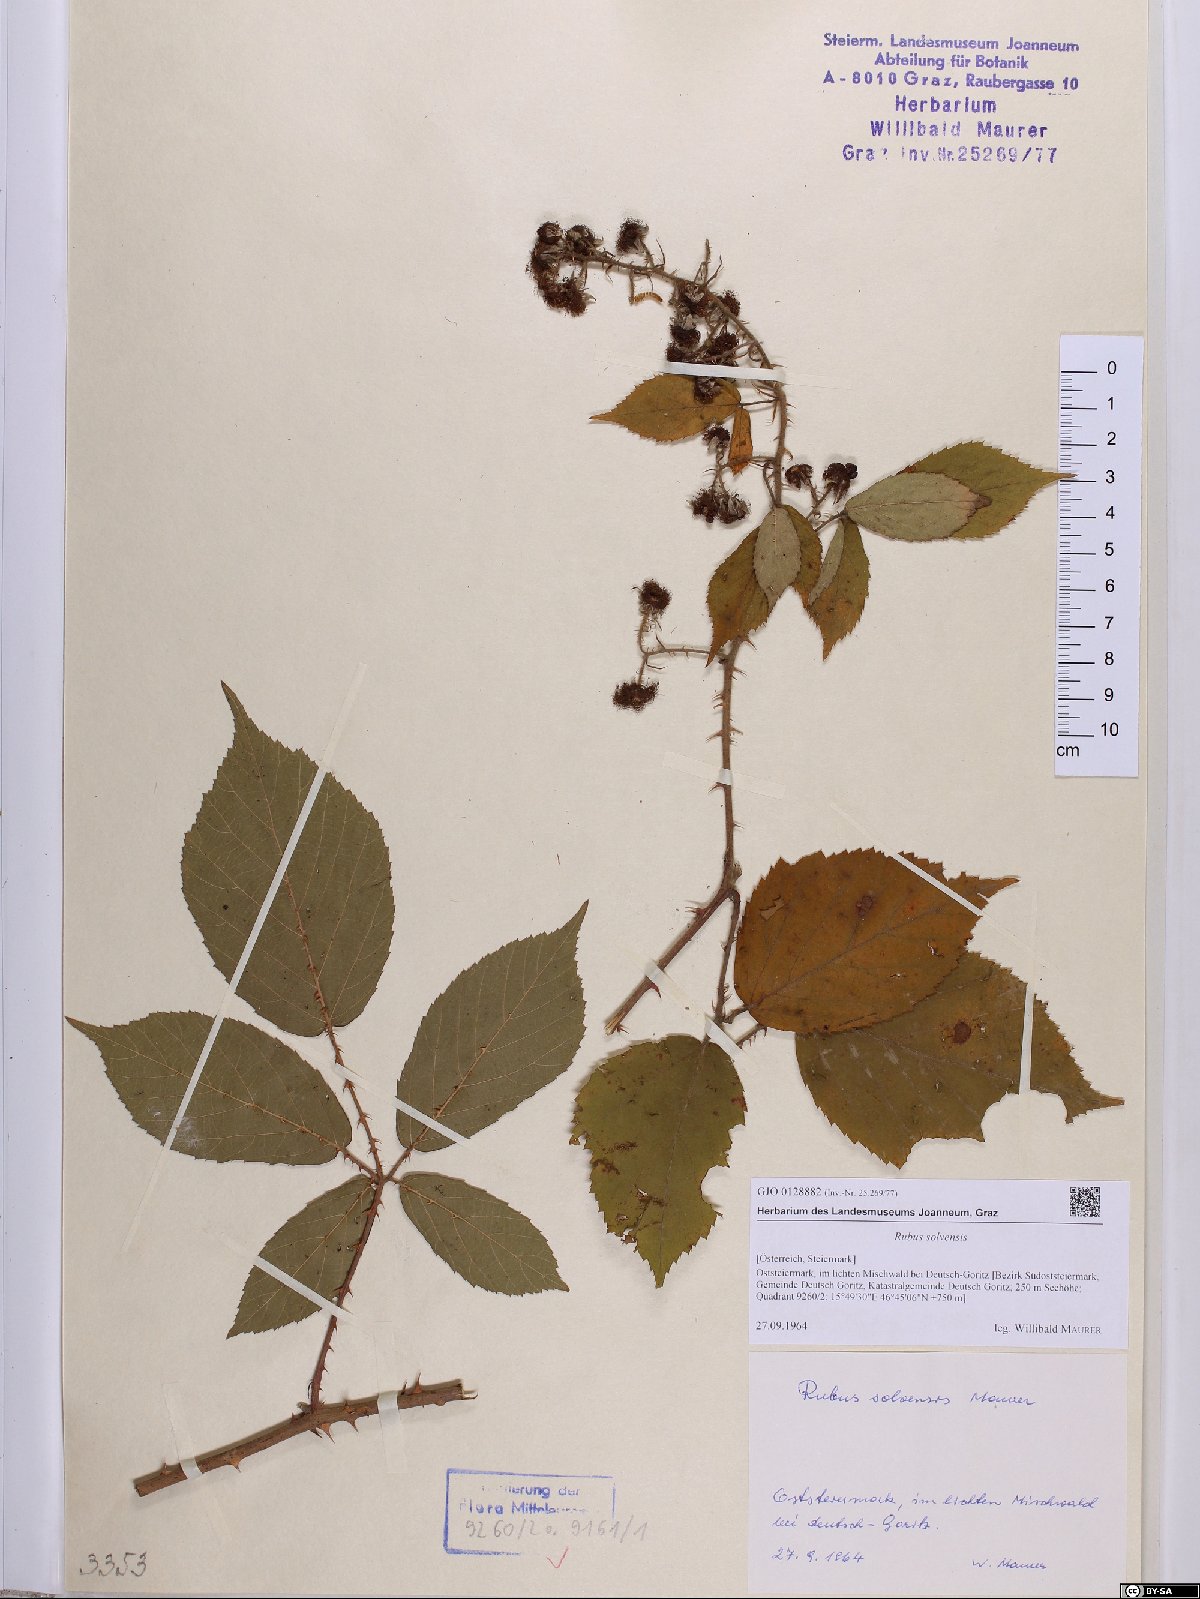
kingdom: Plantae
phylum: Tracheophyta
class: Magnoliopsida
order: Rosales
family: Rosaceae
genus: Rubus
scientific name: Rubus solvensis
